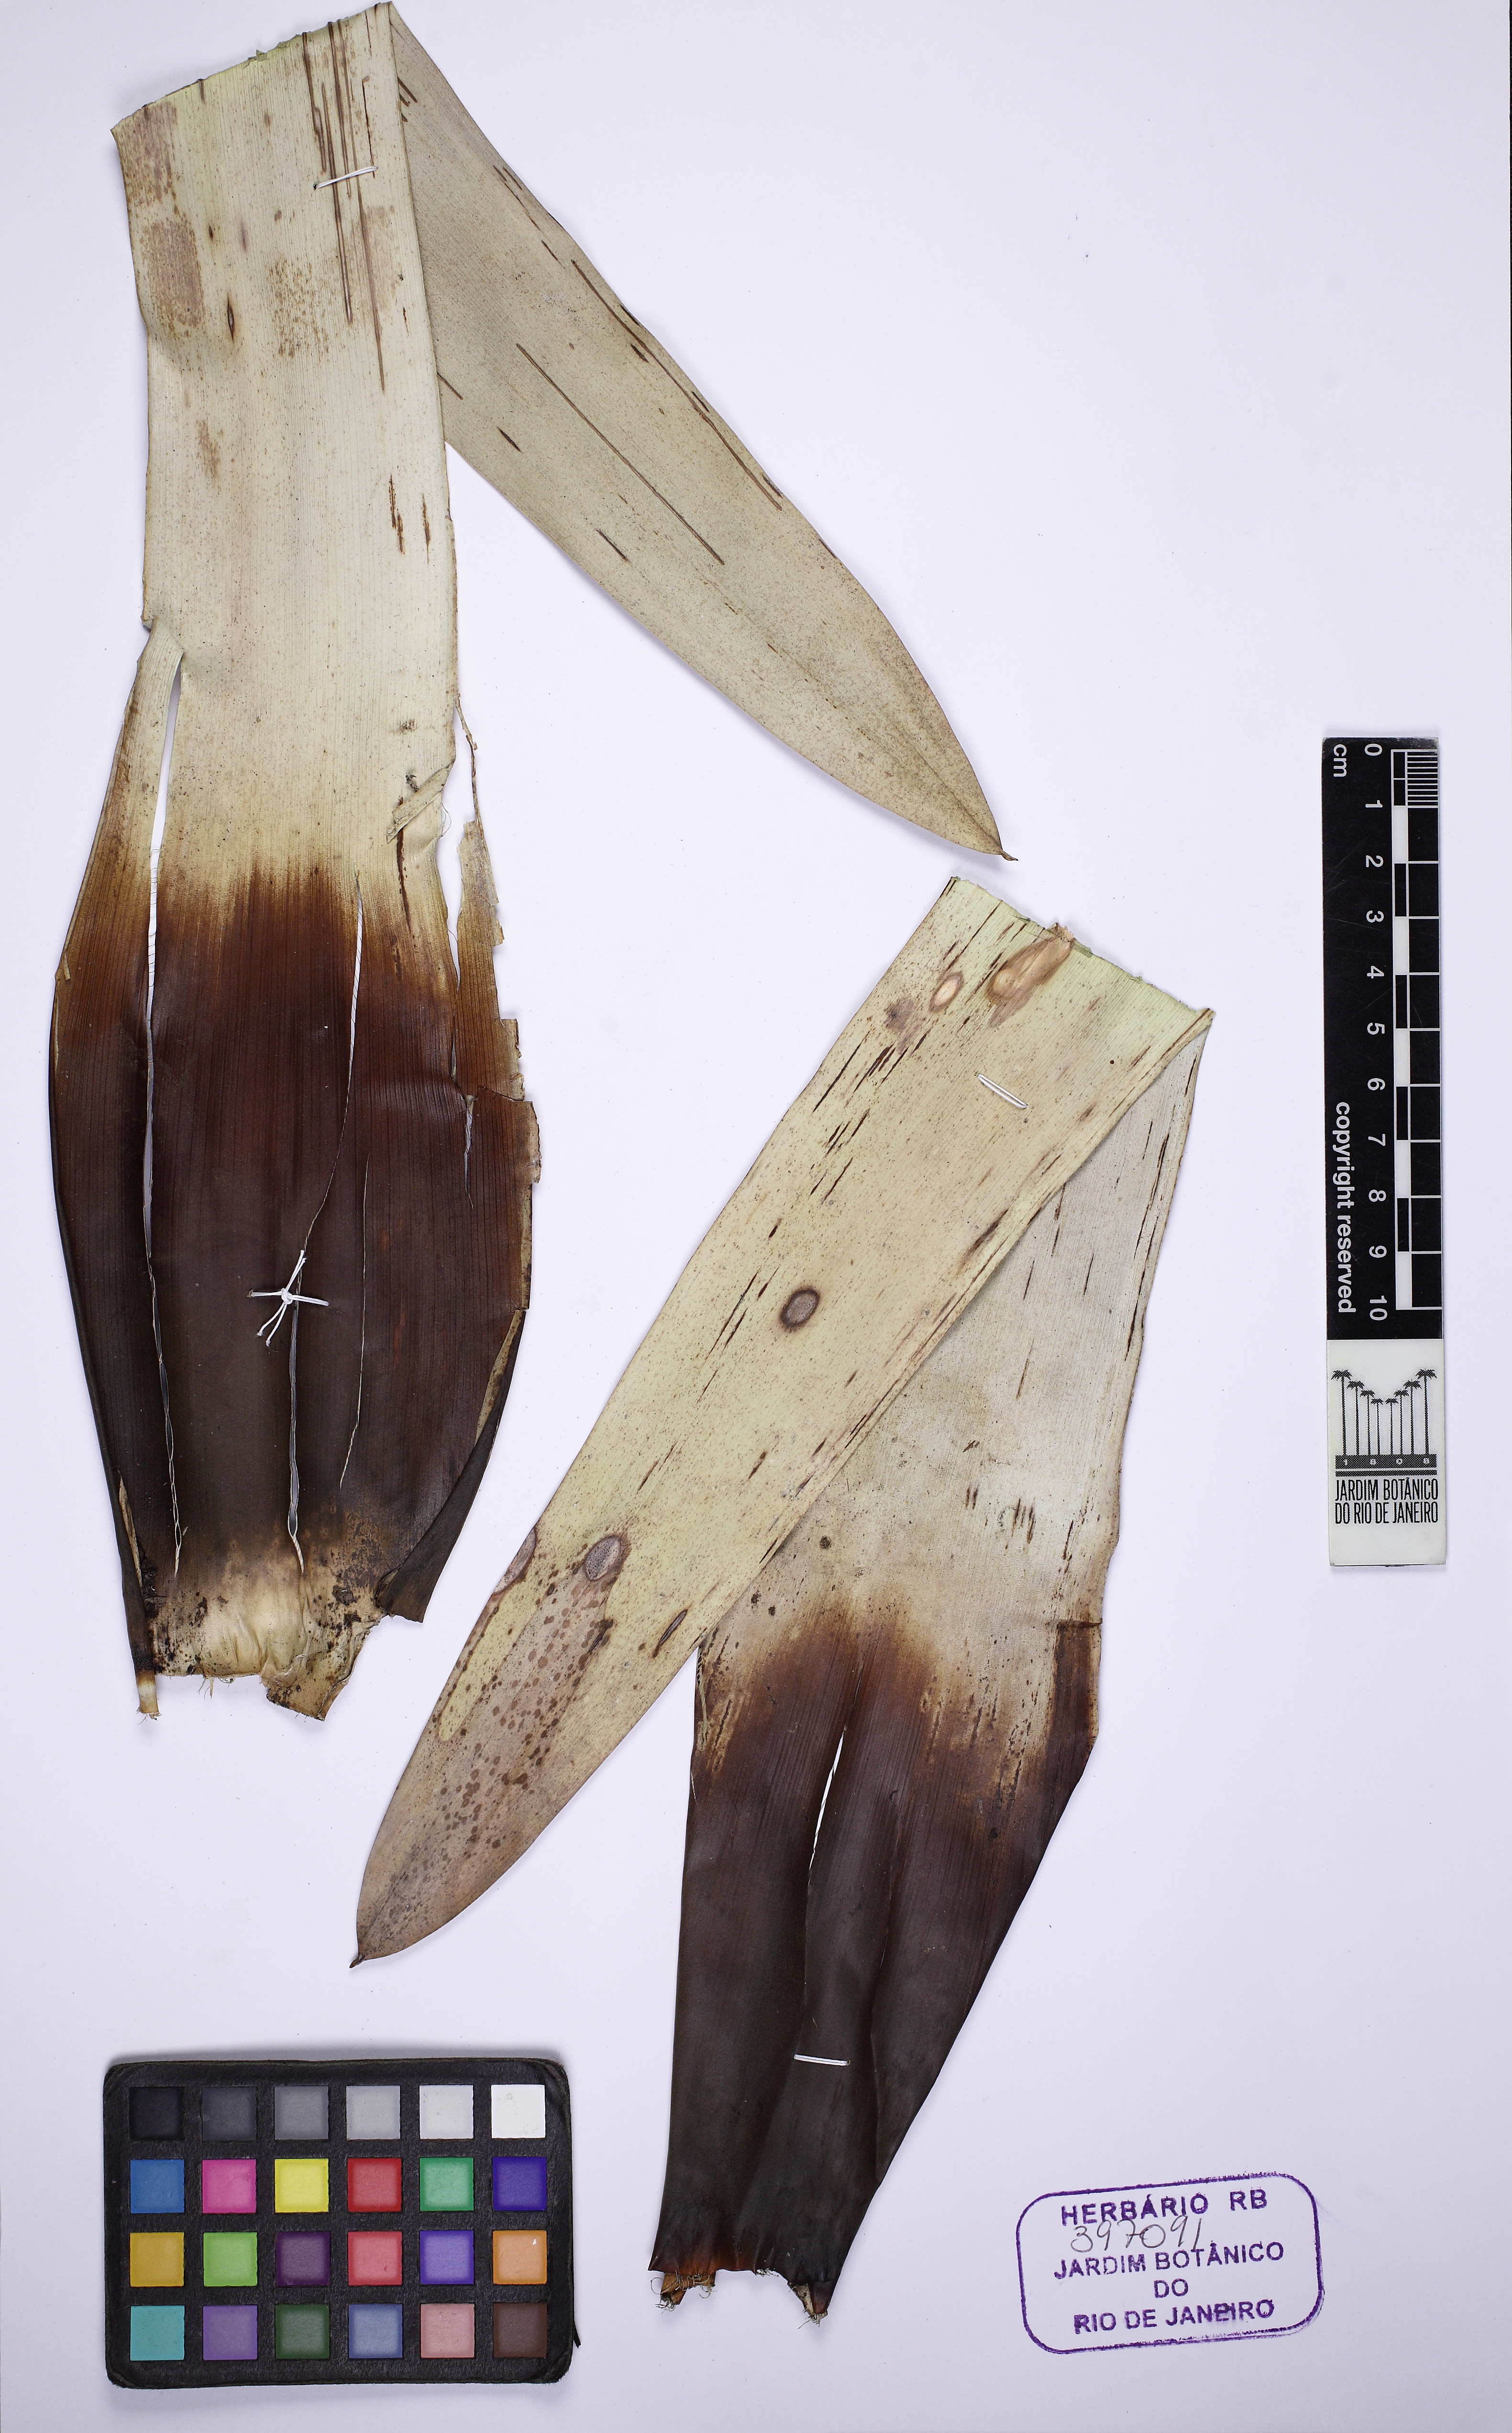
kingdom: Plantae
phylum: Tracheophyta
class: Liliopsida
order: Poales
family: Bromeliaceae
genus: Vriesea
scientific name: Vriesea hoehneana
